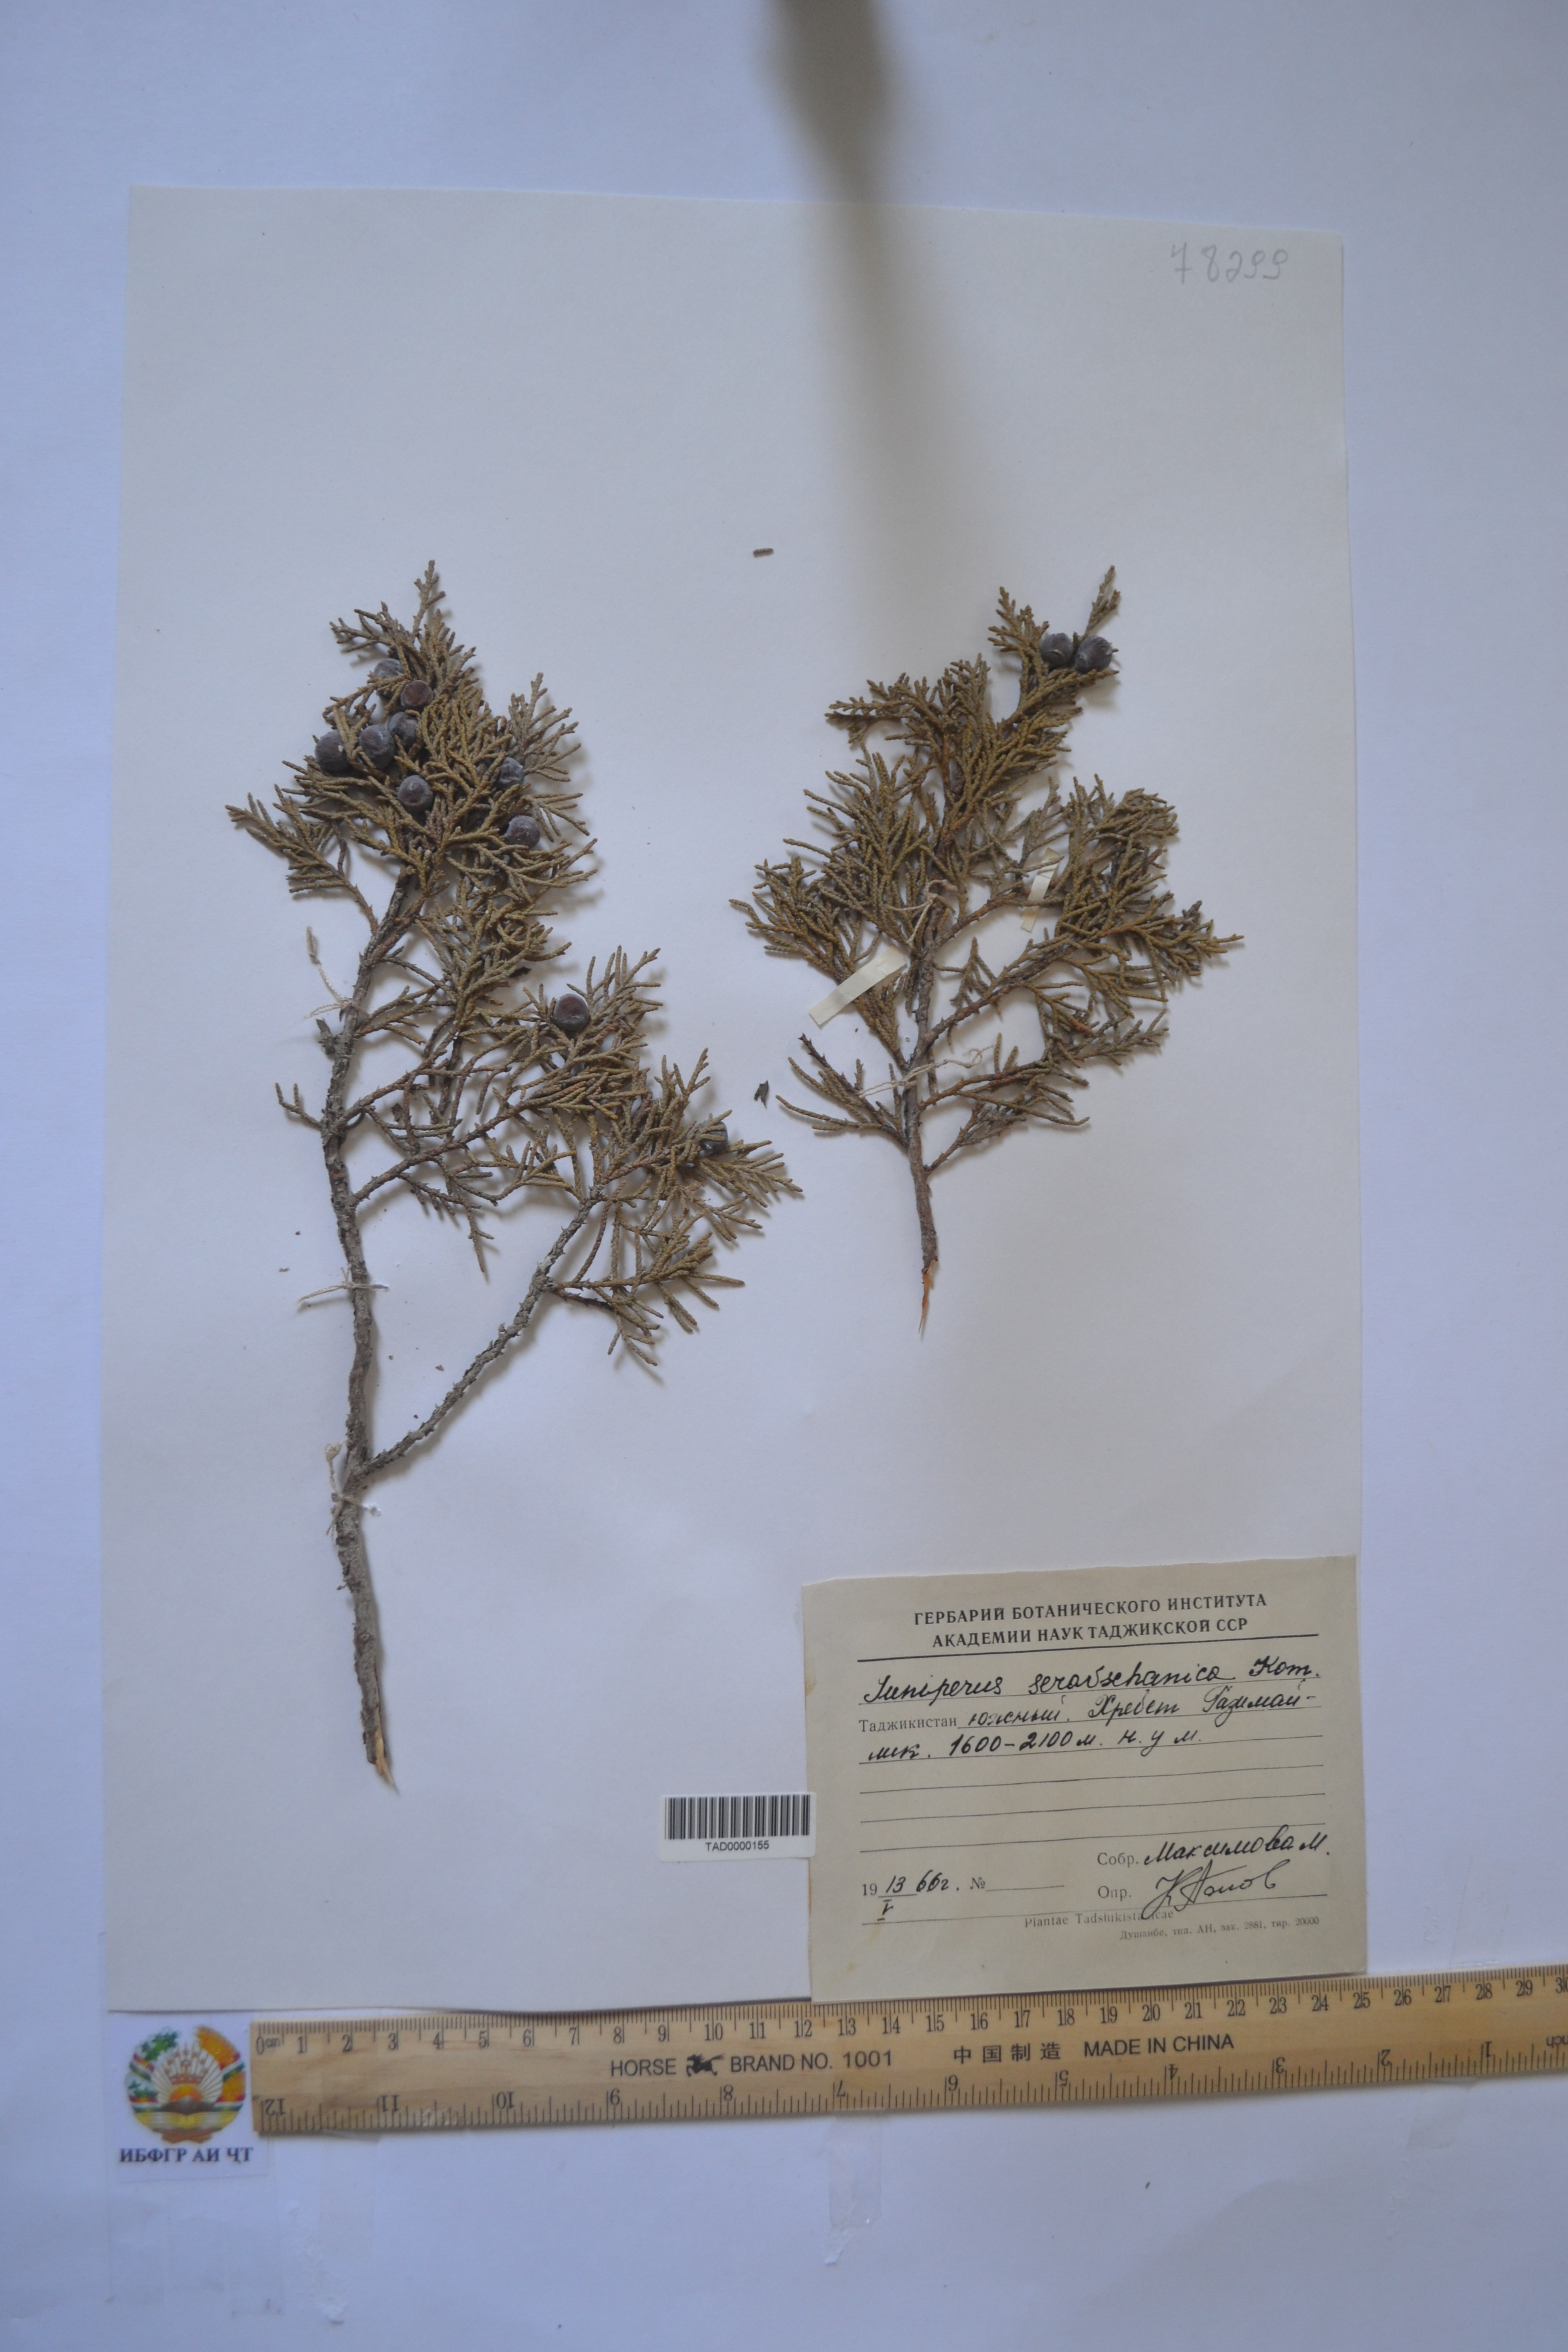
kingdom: Plantae
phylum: Tracheophyta
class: Pinopsida
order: Pinales
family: Cupressaceae
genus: Juniperus
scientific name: Juniperus excelsa
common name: Crimean juniper
